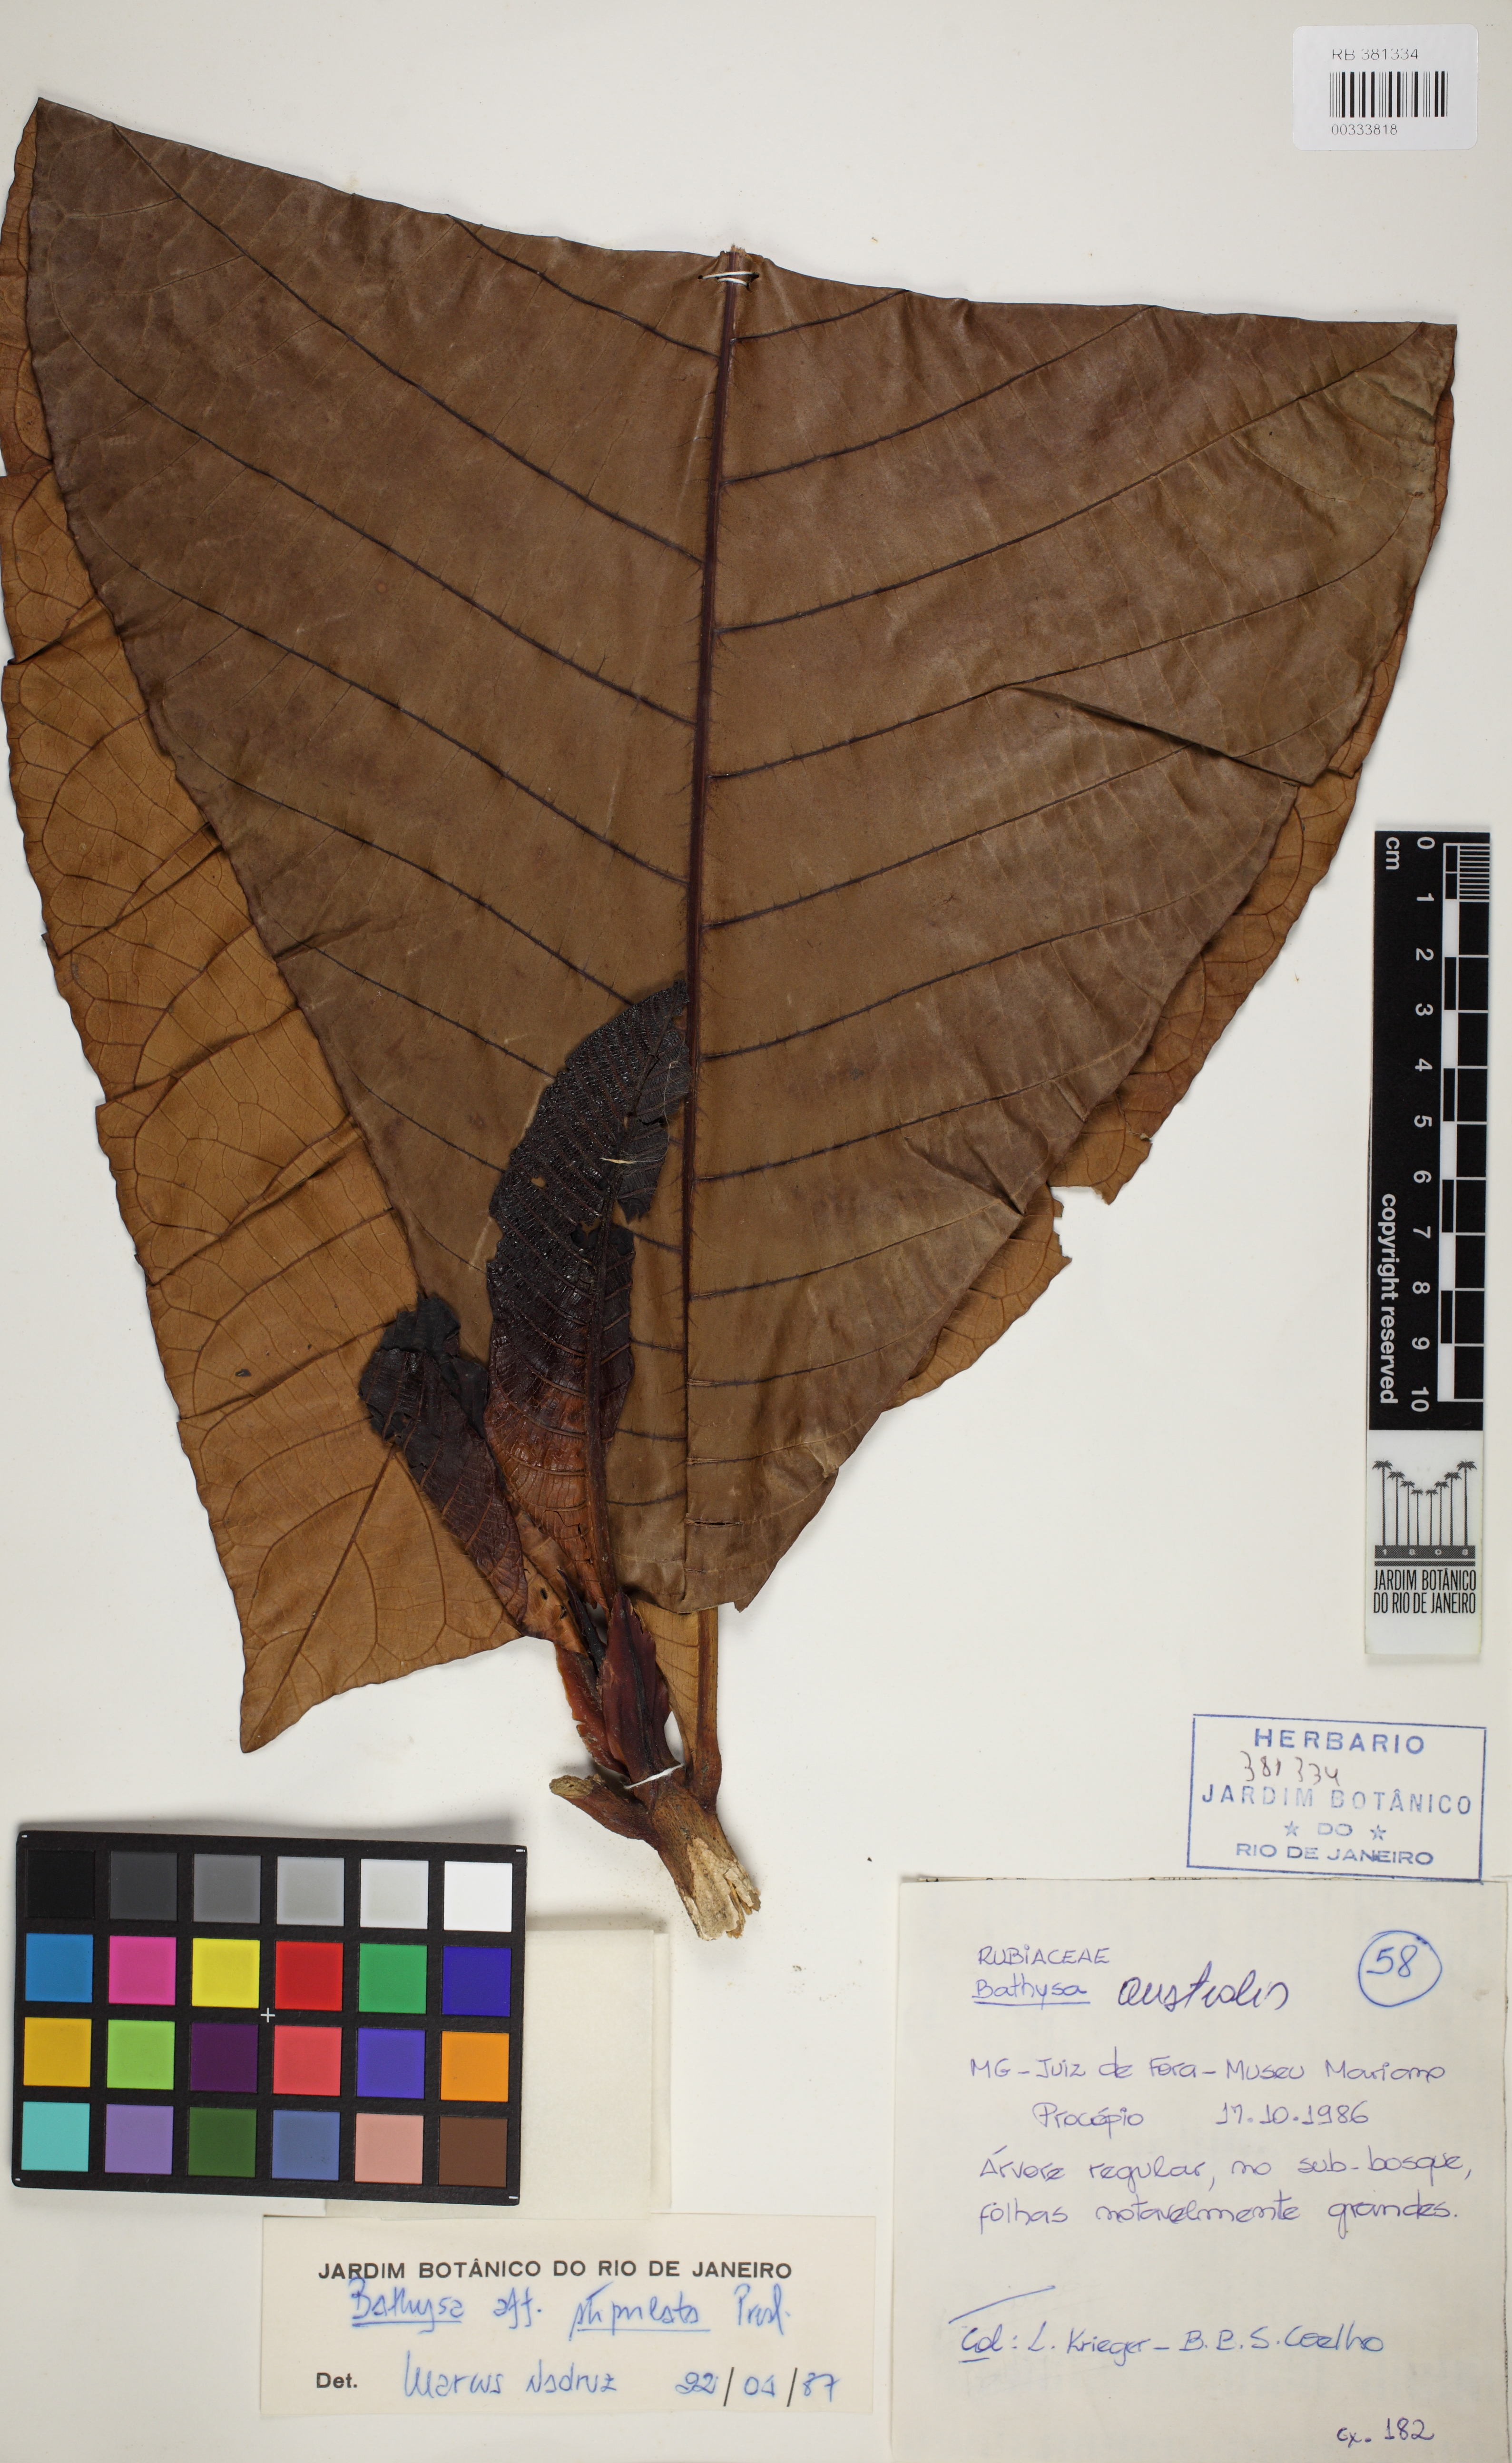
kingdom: Plantae
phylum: Tracheophyta
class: Magnoliopsida
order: Gentianales
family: Rubiaceae
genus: Bathysa
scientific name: Bathysa australis
